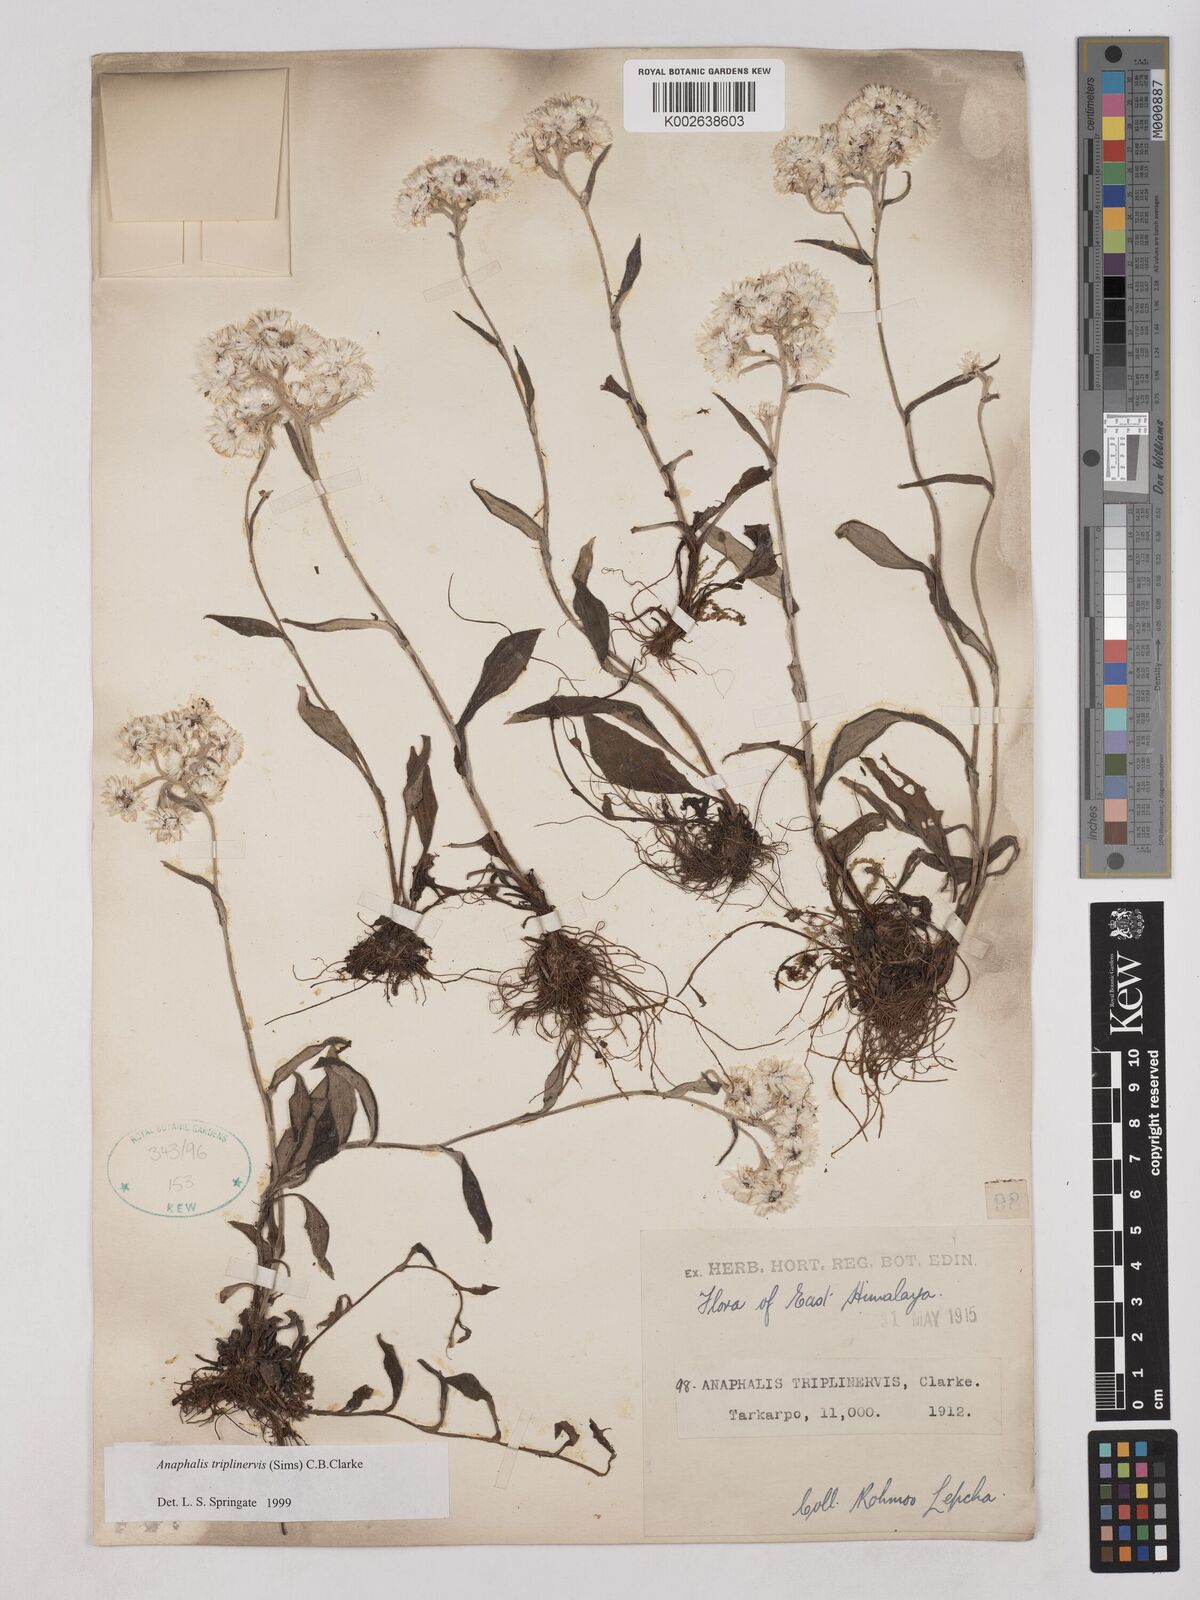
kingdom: Plantae
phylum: Tracheophyta
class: Magnoliopsida
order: Asterales
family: Asteraceae
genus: Anaphalis
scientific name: Anaphalis triplinervis
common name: Pearly everlasting
